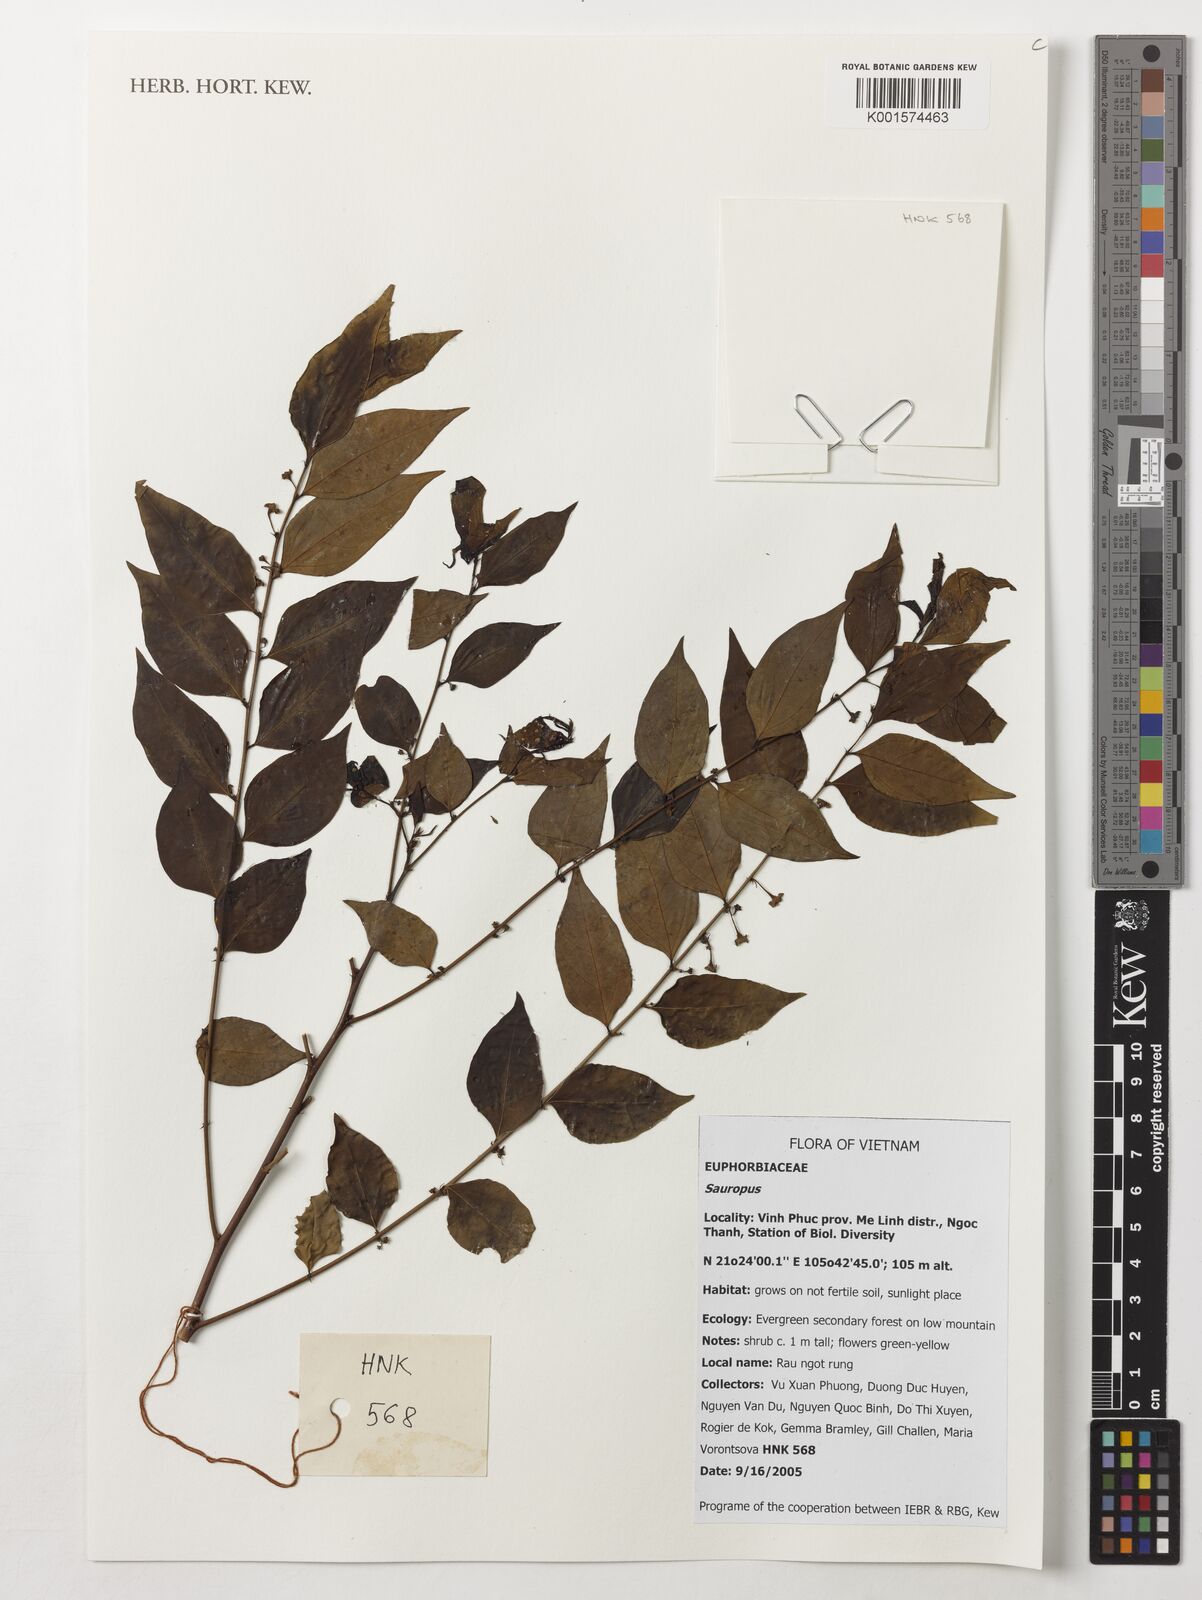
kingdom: Animalia
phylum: Chordata
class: Amphibia
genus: Sauropus
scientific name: Sauropus
